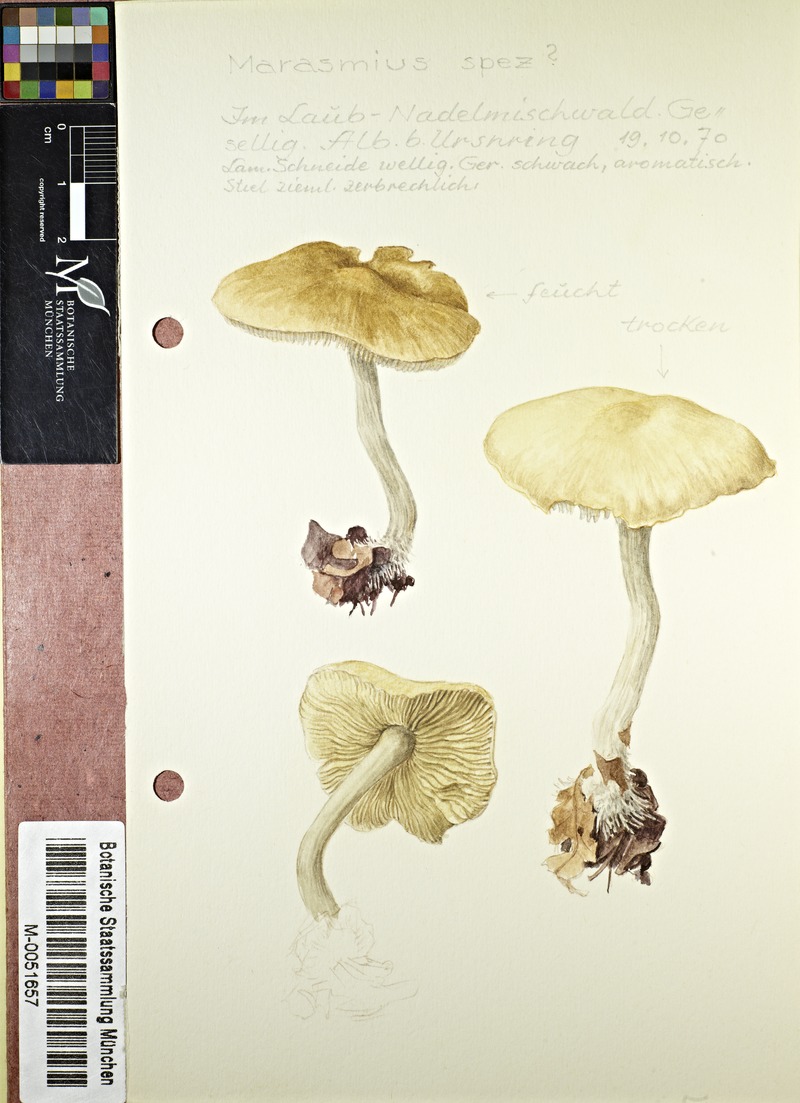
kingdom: Fungi
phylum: Basidiomycota
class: Agaricomycetes
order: Agaricales
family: Marasmiaceae
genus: Marasmius
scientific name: Marasmius
